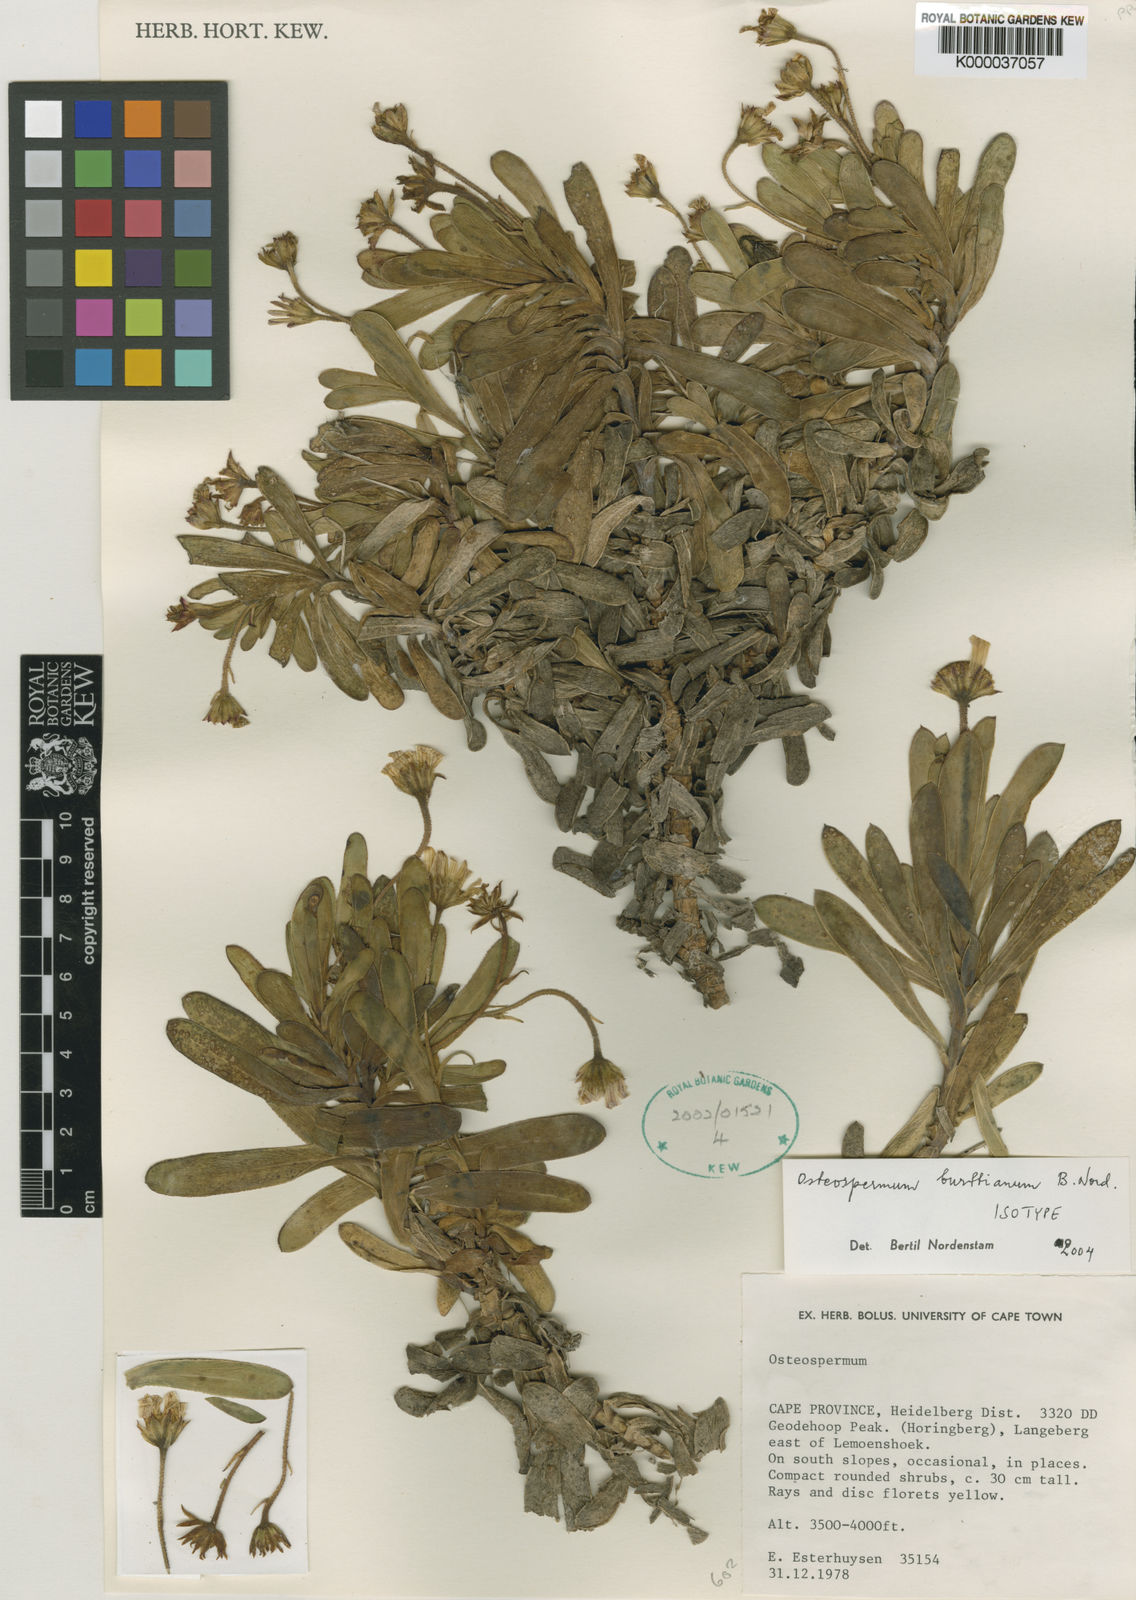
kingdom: Plantae
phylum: Tracheophyta
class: Magnoliopsida
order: Asterales
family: Asteraceae
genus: Osteospermum
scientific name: Osteospermum burttianum
